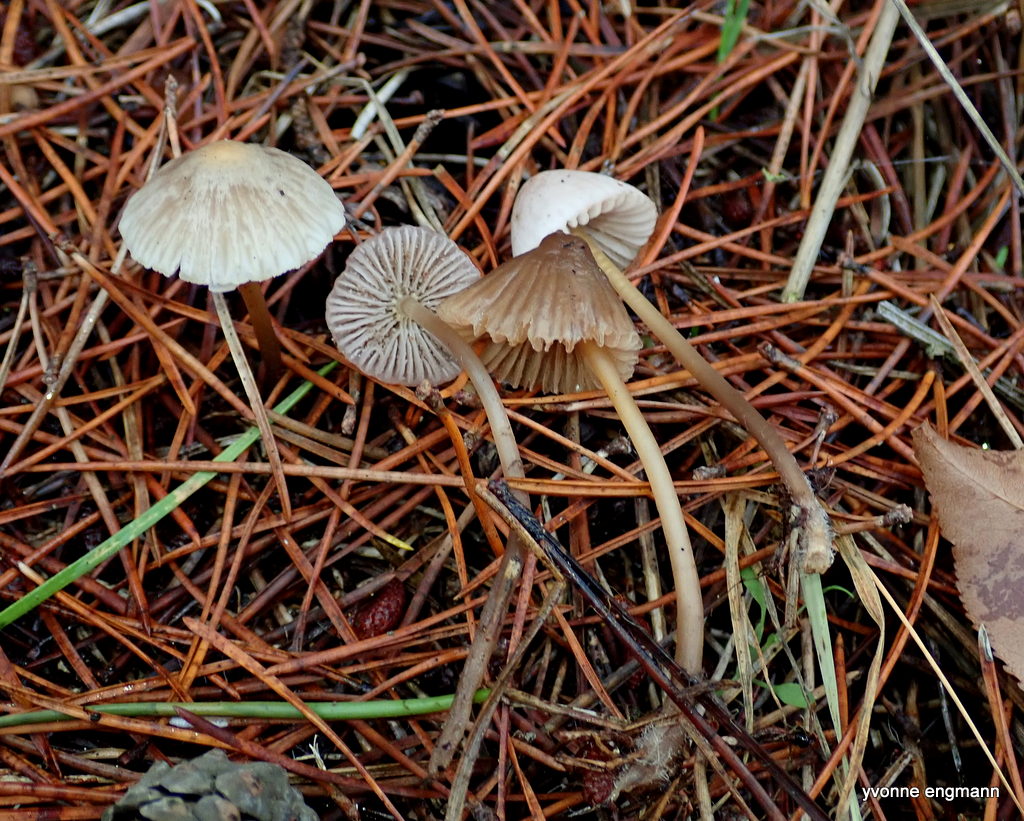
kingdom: Fungi
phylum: Basidiomycota
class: Agaricomycetes
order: Agaricales
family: Mycenaceae
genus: Mycena
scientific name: Mycena
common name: huesvamp
